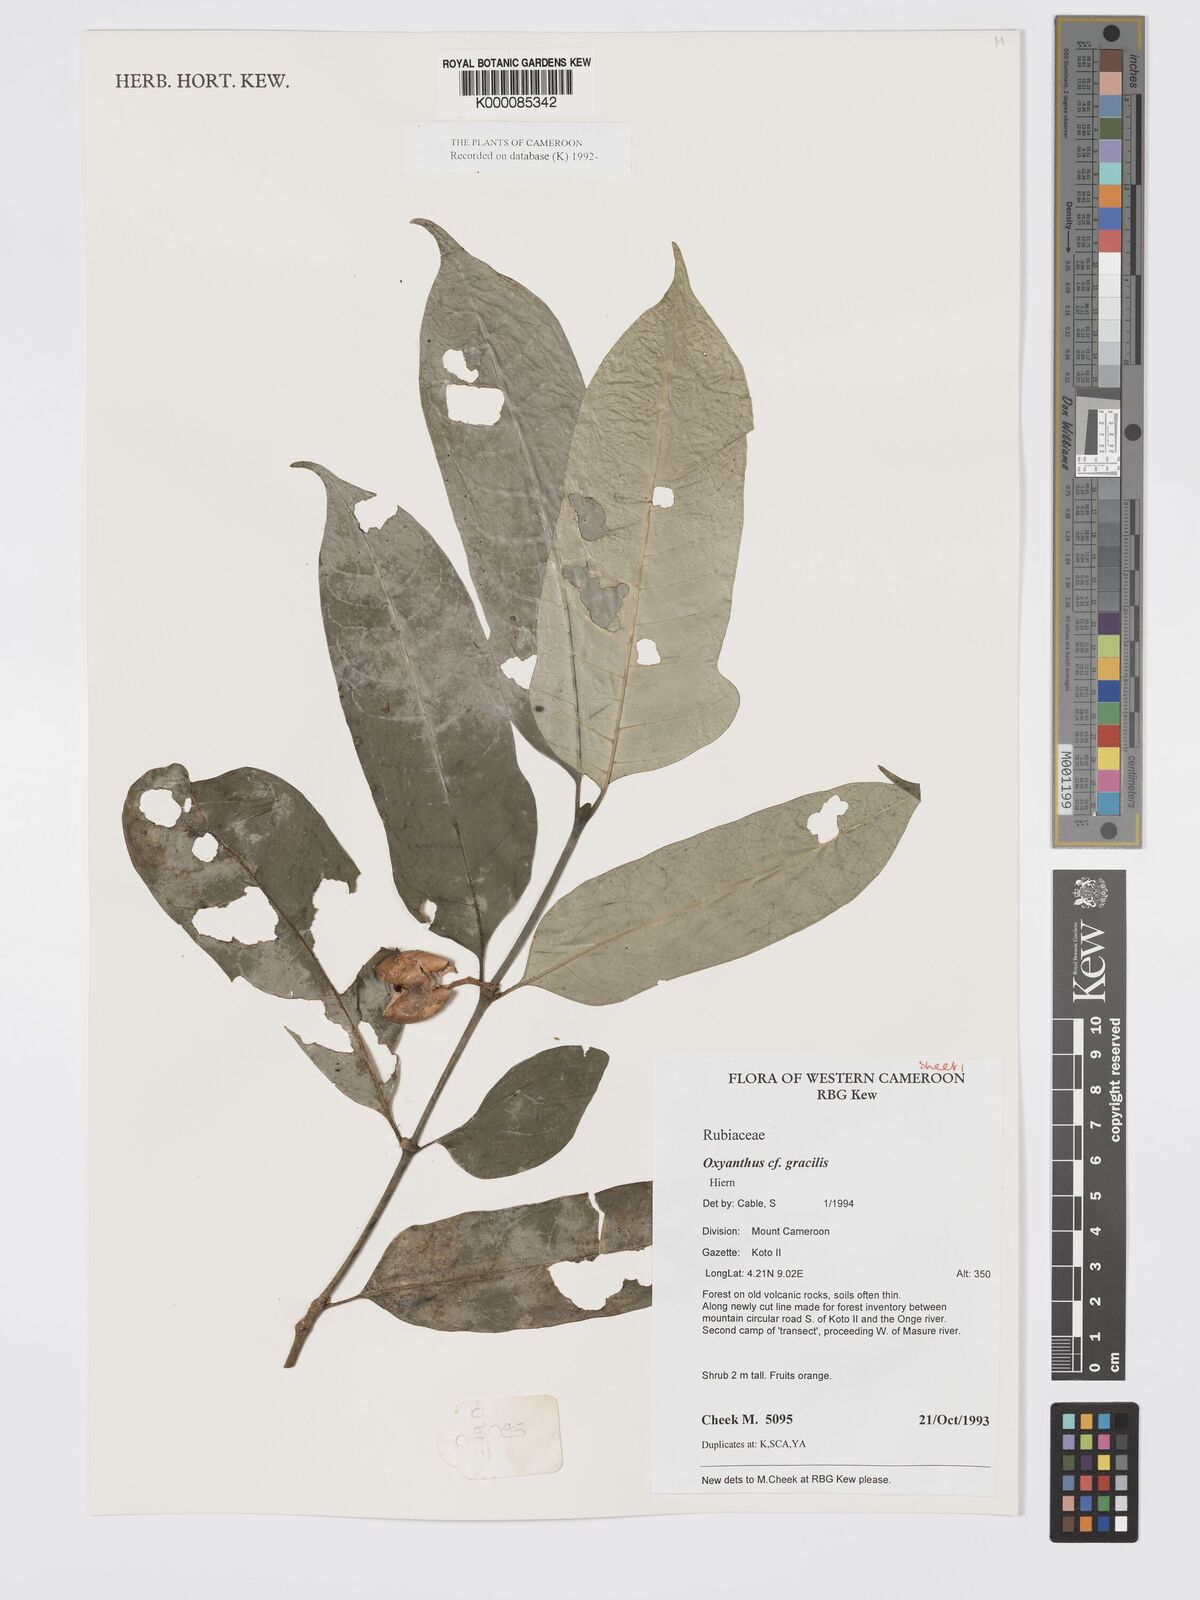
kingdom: Plantae
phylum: Tracheophyta
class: Magnoliopsida
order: Gentianales
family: Rubiaceae
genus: Oxyanthus
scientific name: Oxyanthus gracilis
